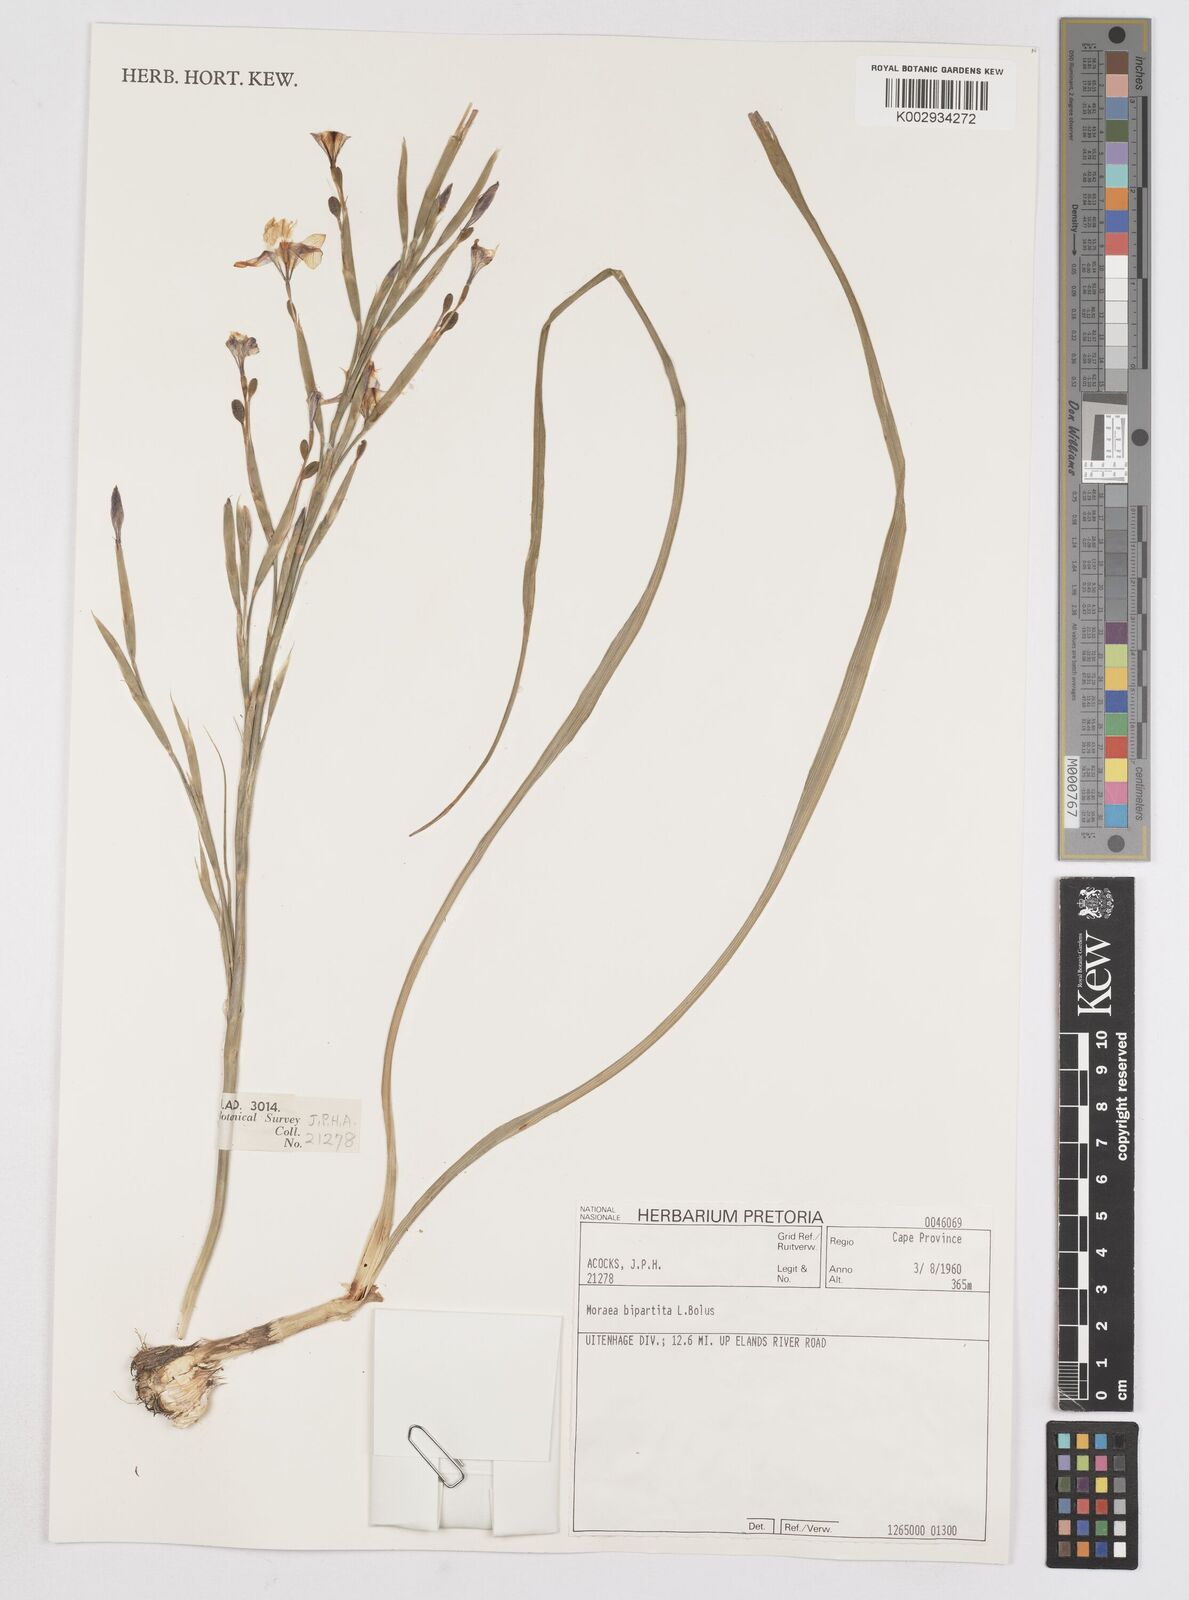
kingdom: Plantae
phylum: Tracheophyta
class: Liliopsida
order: Asparagales
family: Iridaceae
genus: Moraea
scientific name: Moraea bipartita
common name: Blue tulp
